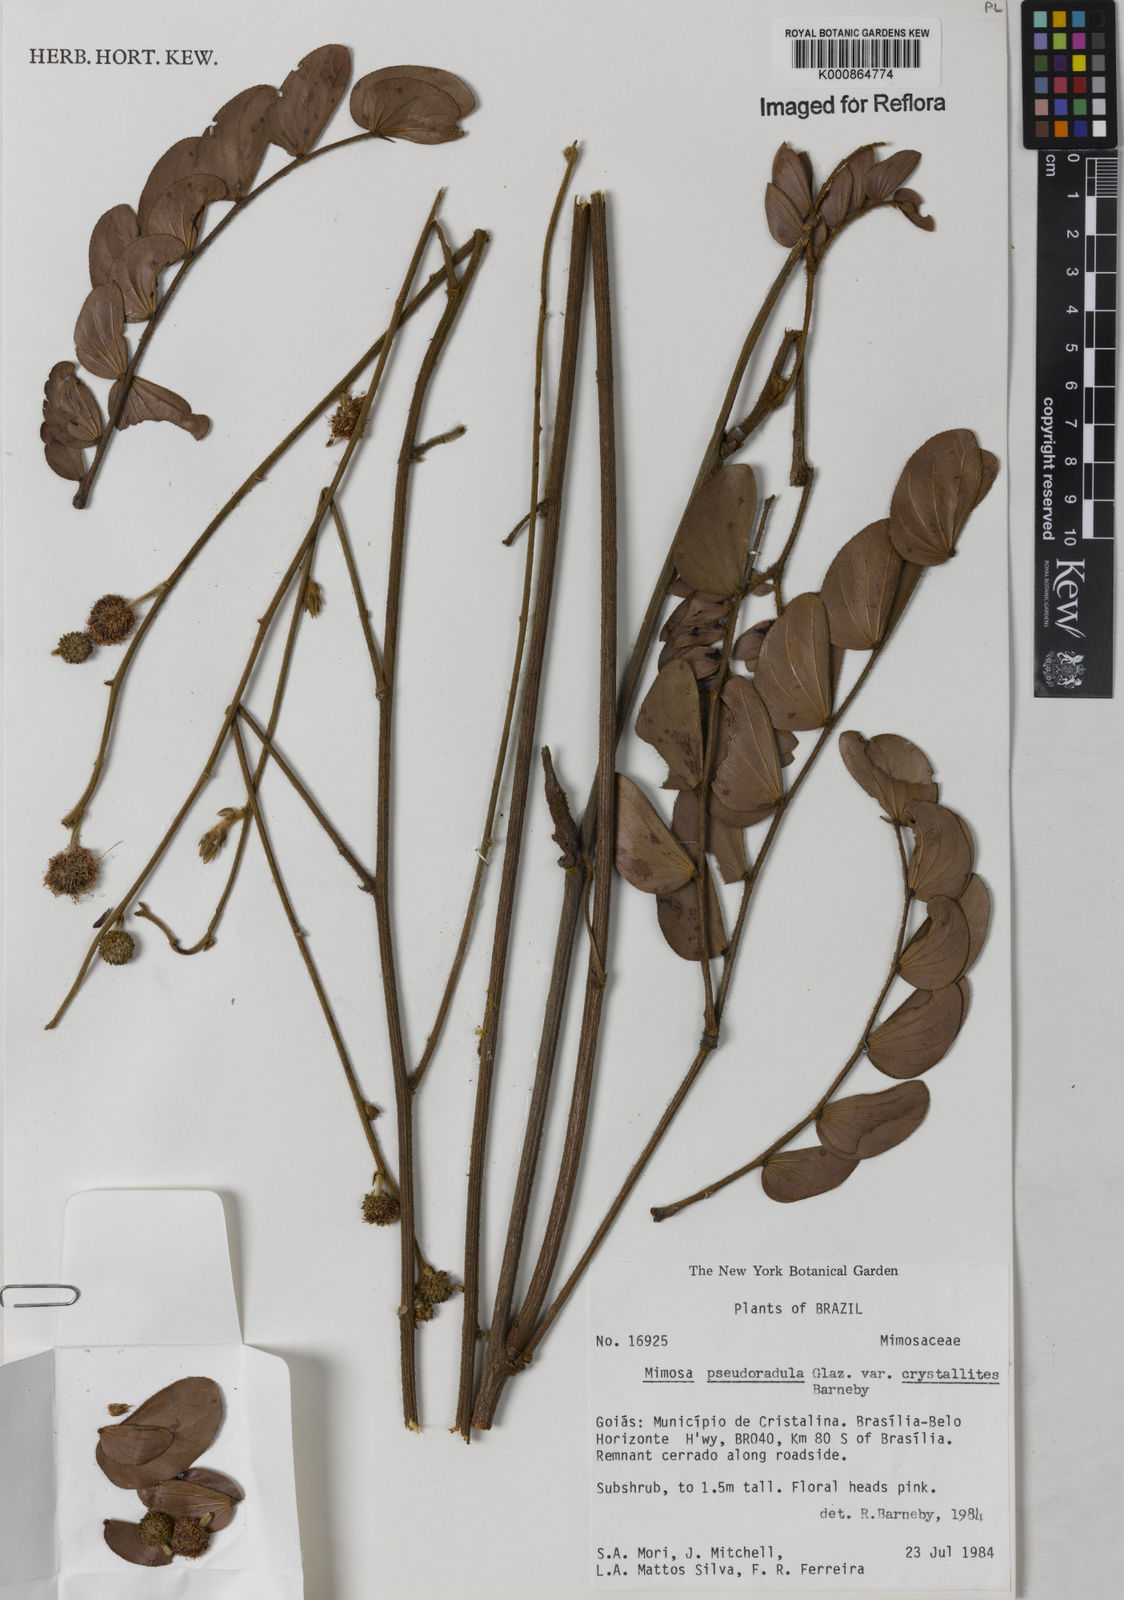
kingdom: Plantae
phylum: Tracheophyta
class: Magnoliopsida
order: Fabales
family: Fabaceae
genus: Mimosa
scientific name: Mimosa pseudoradula
